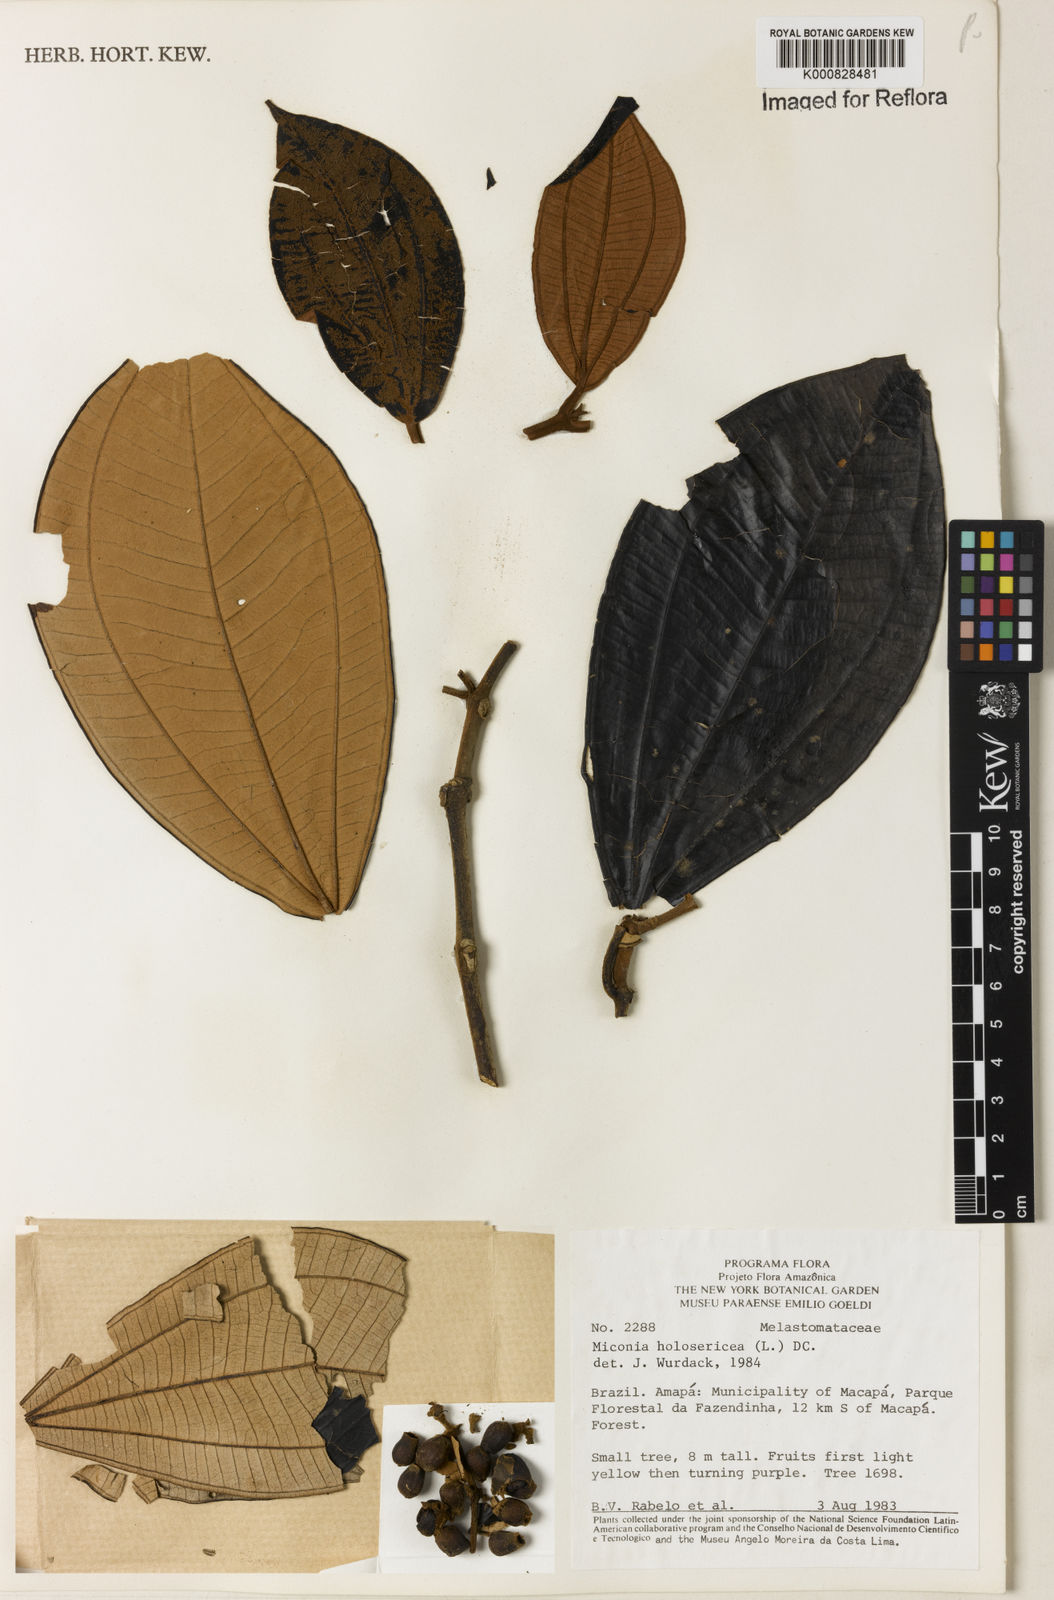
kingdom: Plantae
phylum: Tracheophyta
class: Magnoliopsida
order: Myrtales
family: Melastomataceae
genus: Miconia
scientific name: Miconia holosericea
